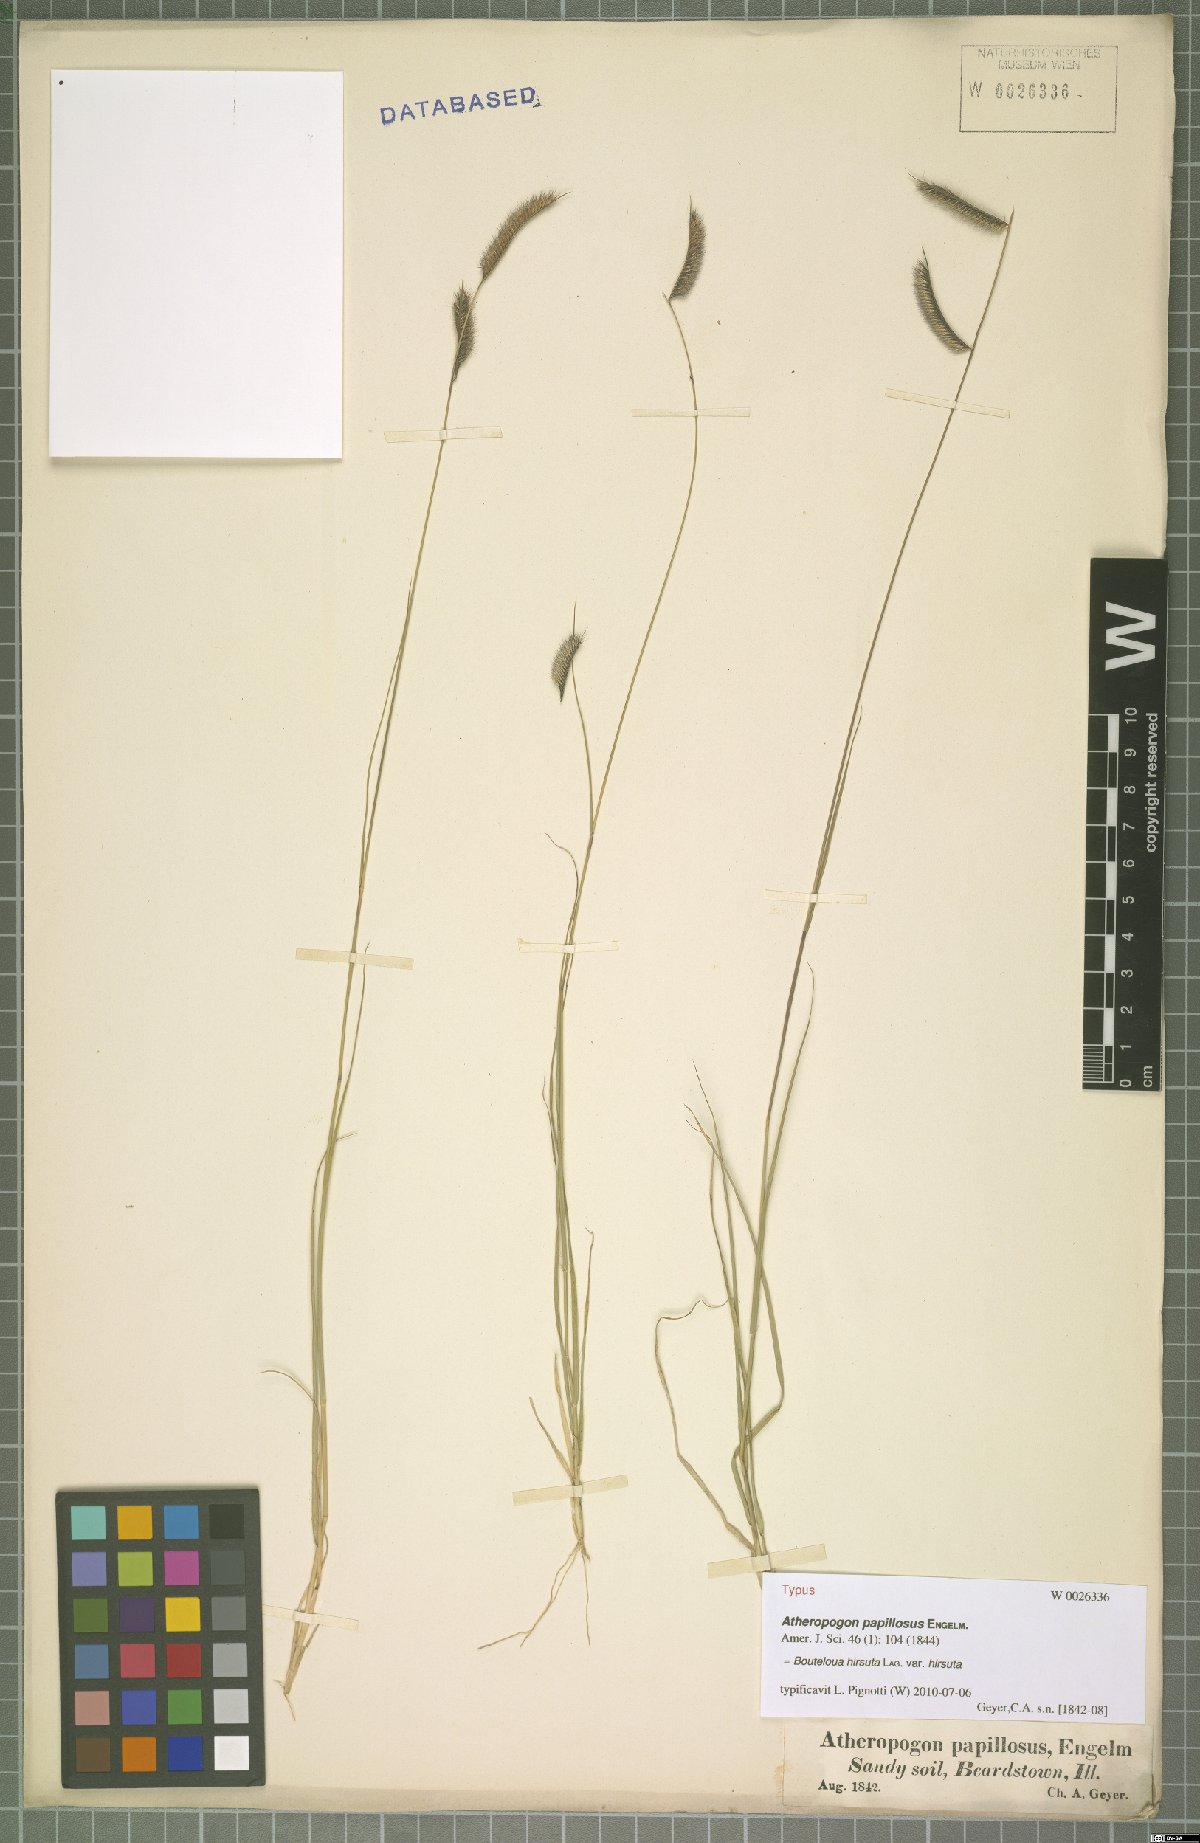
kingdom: Plantae
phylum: Tracheophyta
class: Liliopsida
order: Poales
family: Poaceae
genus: Bouteloua
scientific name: Bouteloua hirsuta
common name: Hairy grama
